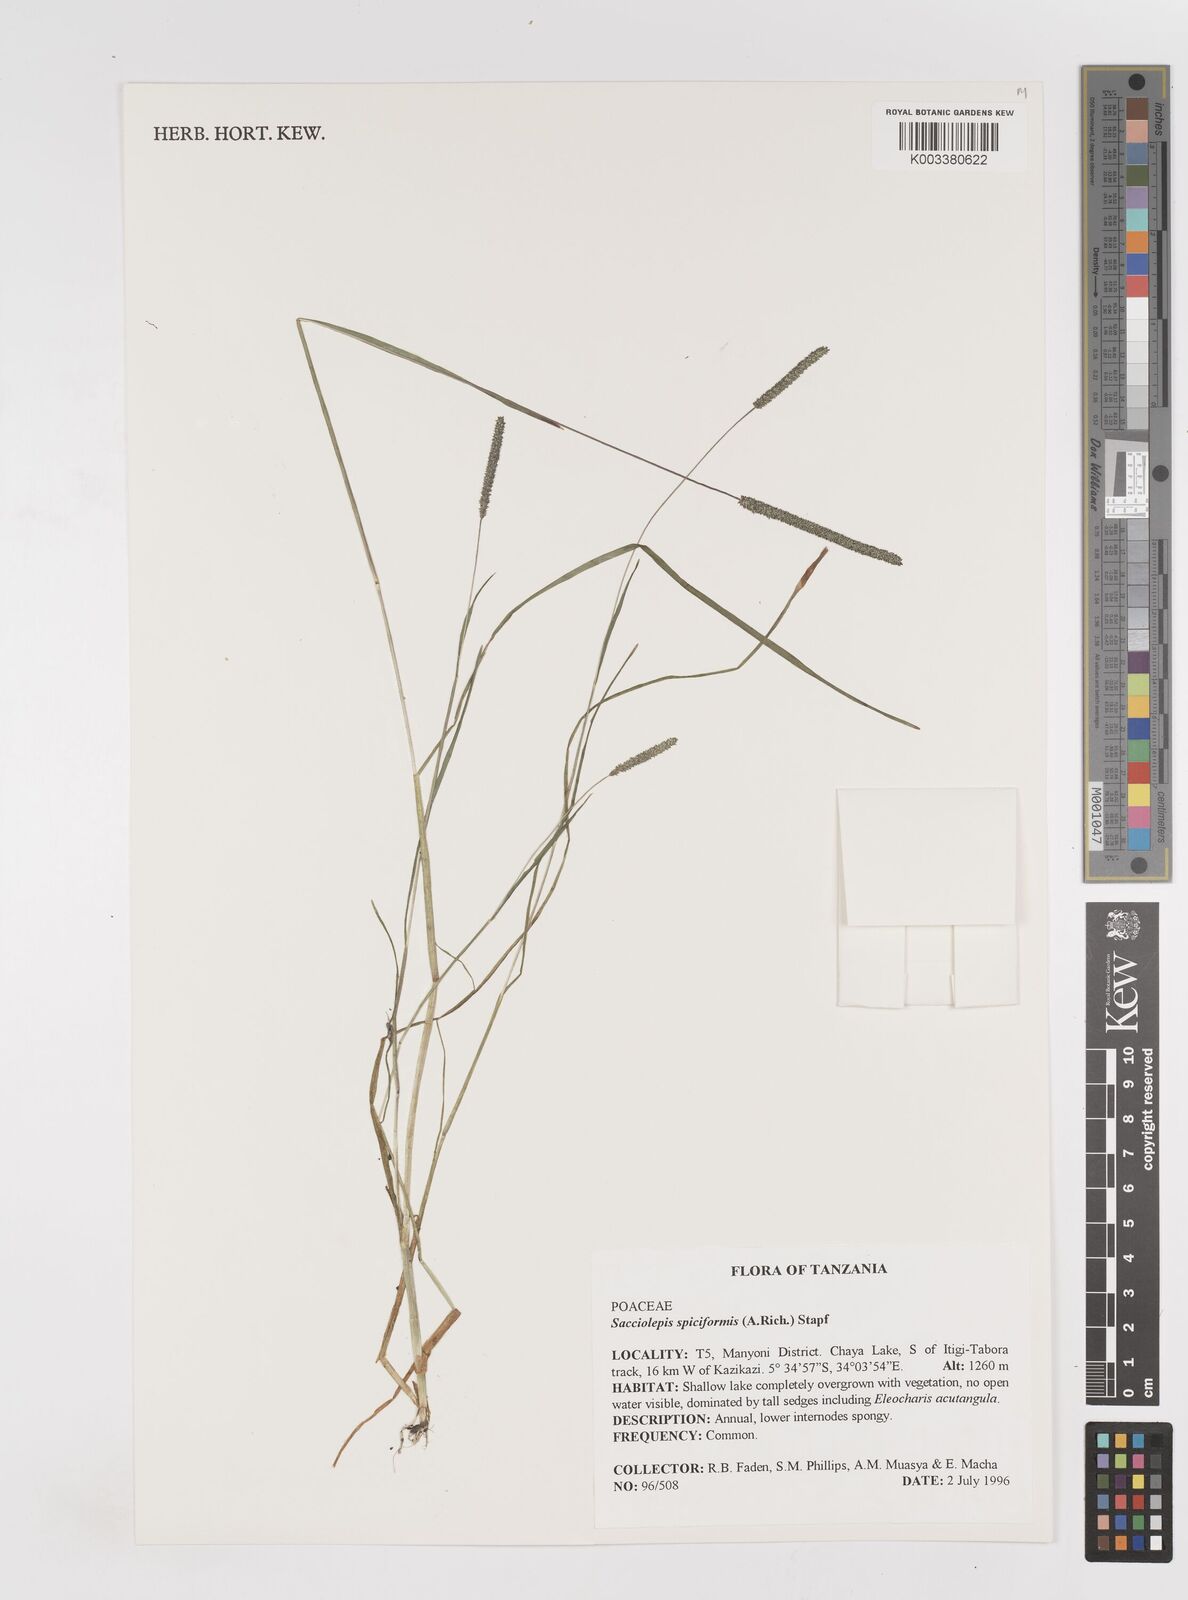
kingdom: Plantae
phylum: Tracheophyta
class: Liliopsida
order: Poales
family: Poaceae
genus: Sacciolepis
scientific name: Sacciolepis myosuroides
